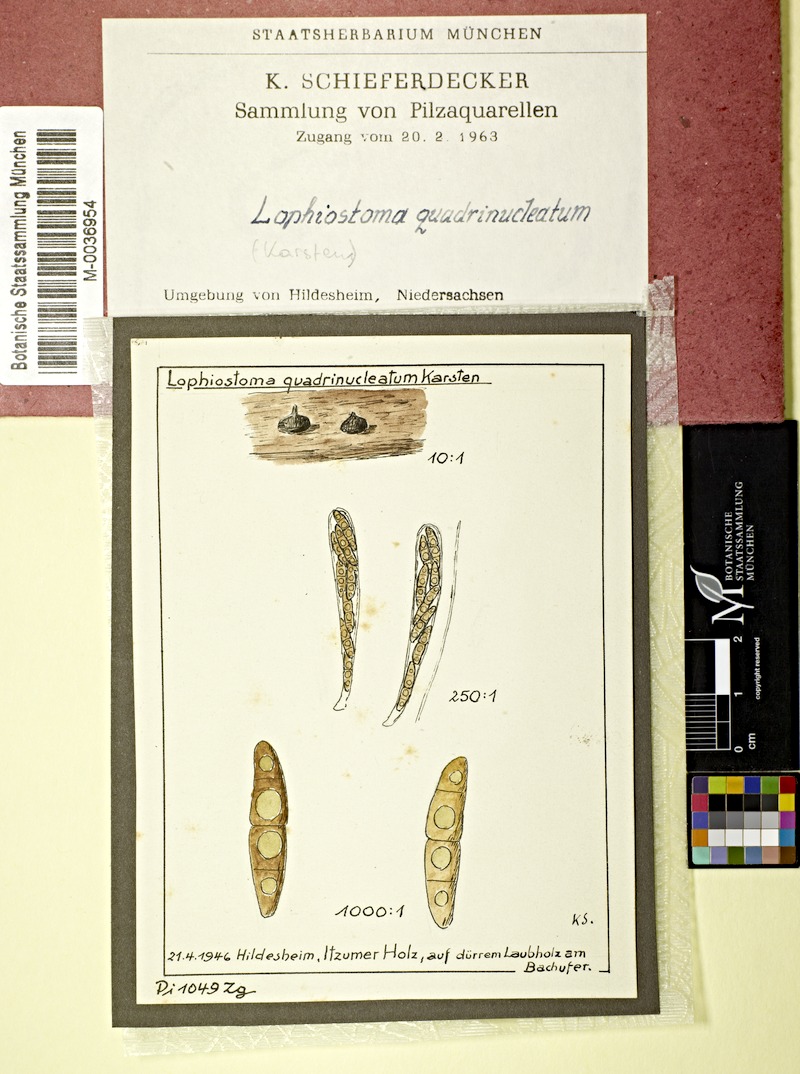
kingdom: Fungi
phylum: Ascomycota
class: Dothideomycetes
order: Pleosporales
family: Lophiostomataceae
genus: Lophiostoma
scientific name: Lophiostoma quadrinucleatum
